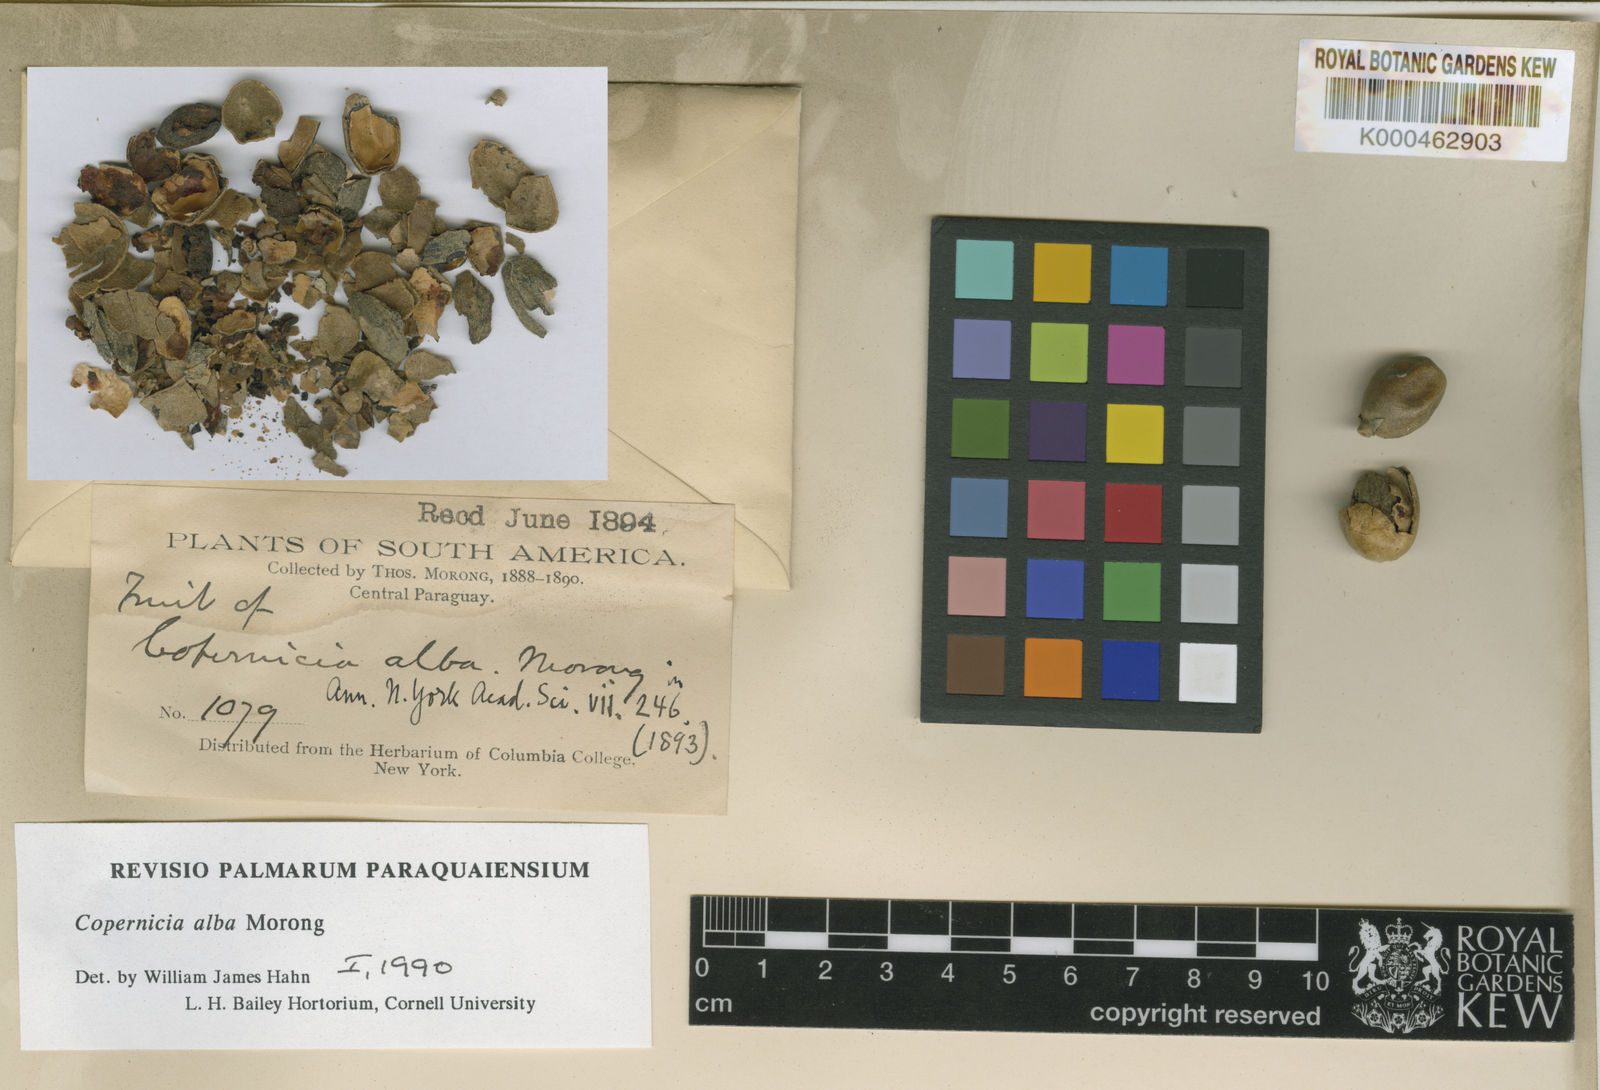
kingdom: Plantae
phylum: Tracheophyta
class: Liliopsida
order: Arecales
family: Arecaceae
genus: Copernicia
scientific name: Copernicia alba
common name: Caranday palm
